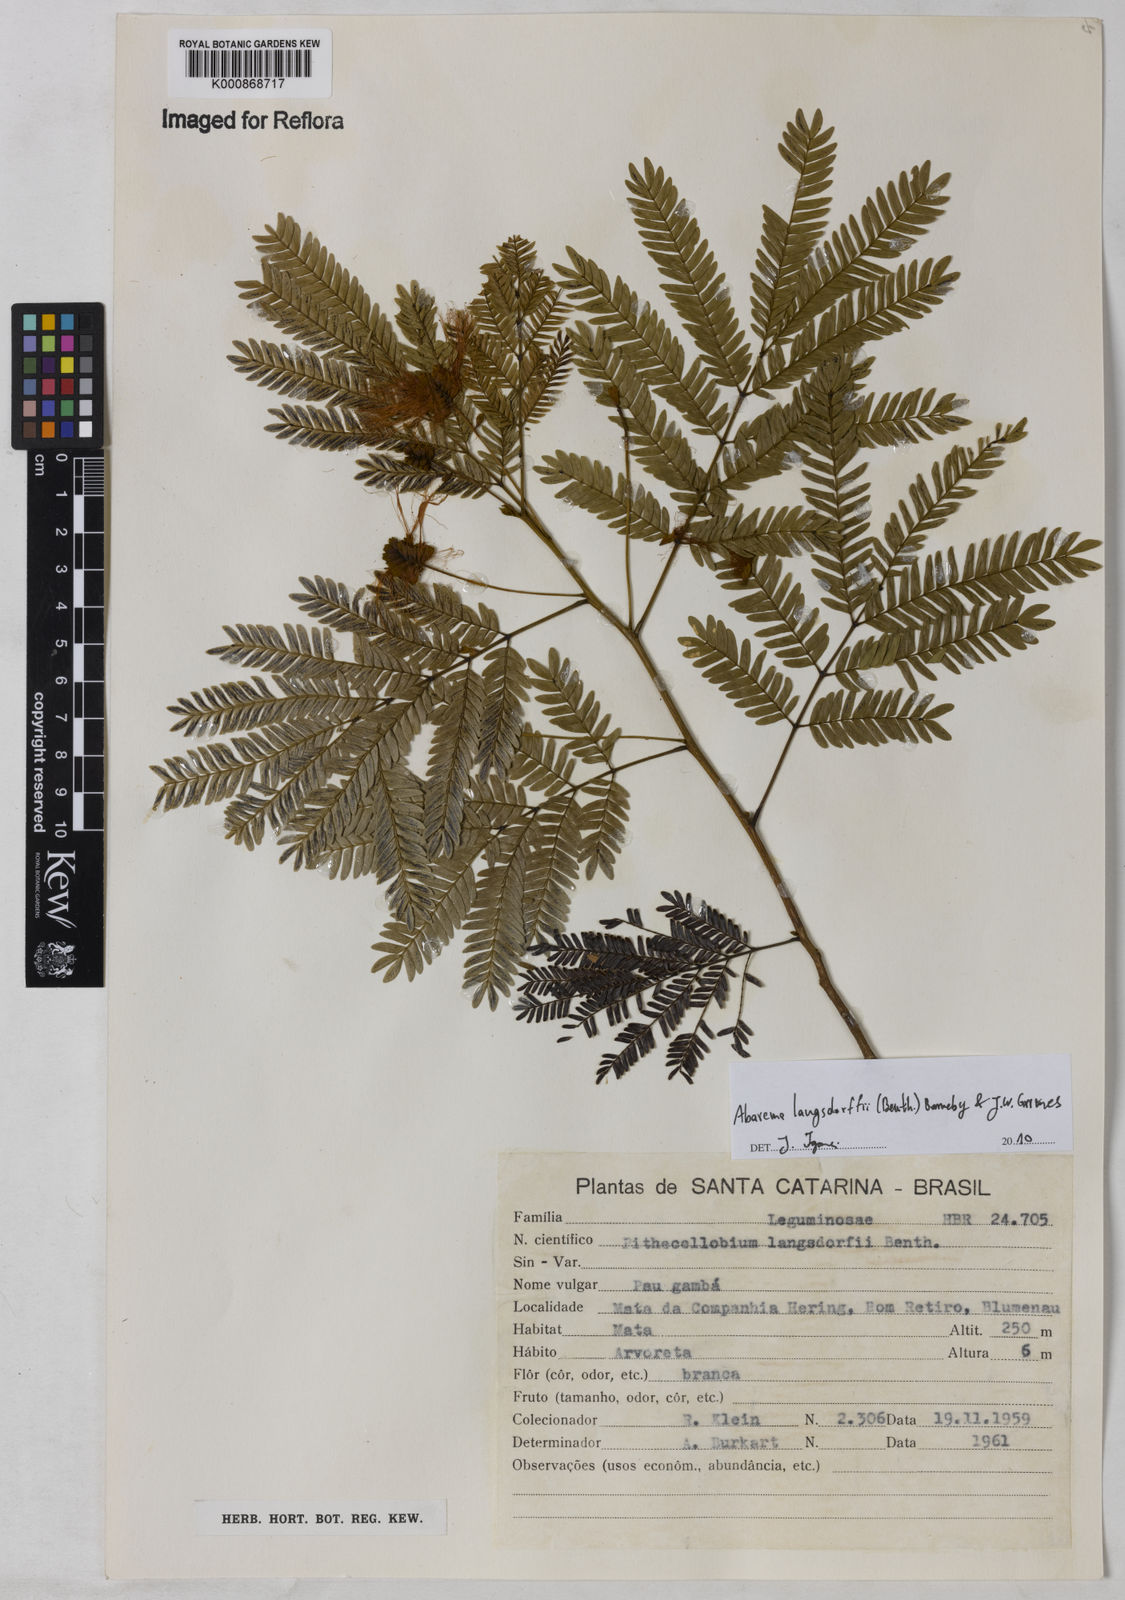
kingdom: Plantae
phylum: Tracheophyta
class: Magnoliopsida
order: Fabales
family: Fabaceae
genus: Jupunba
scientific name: Jupunba langsdorffii
